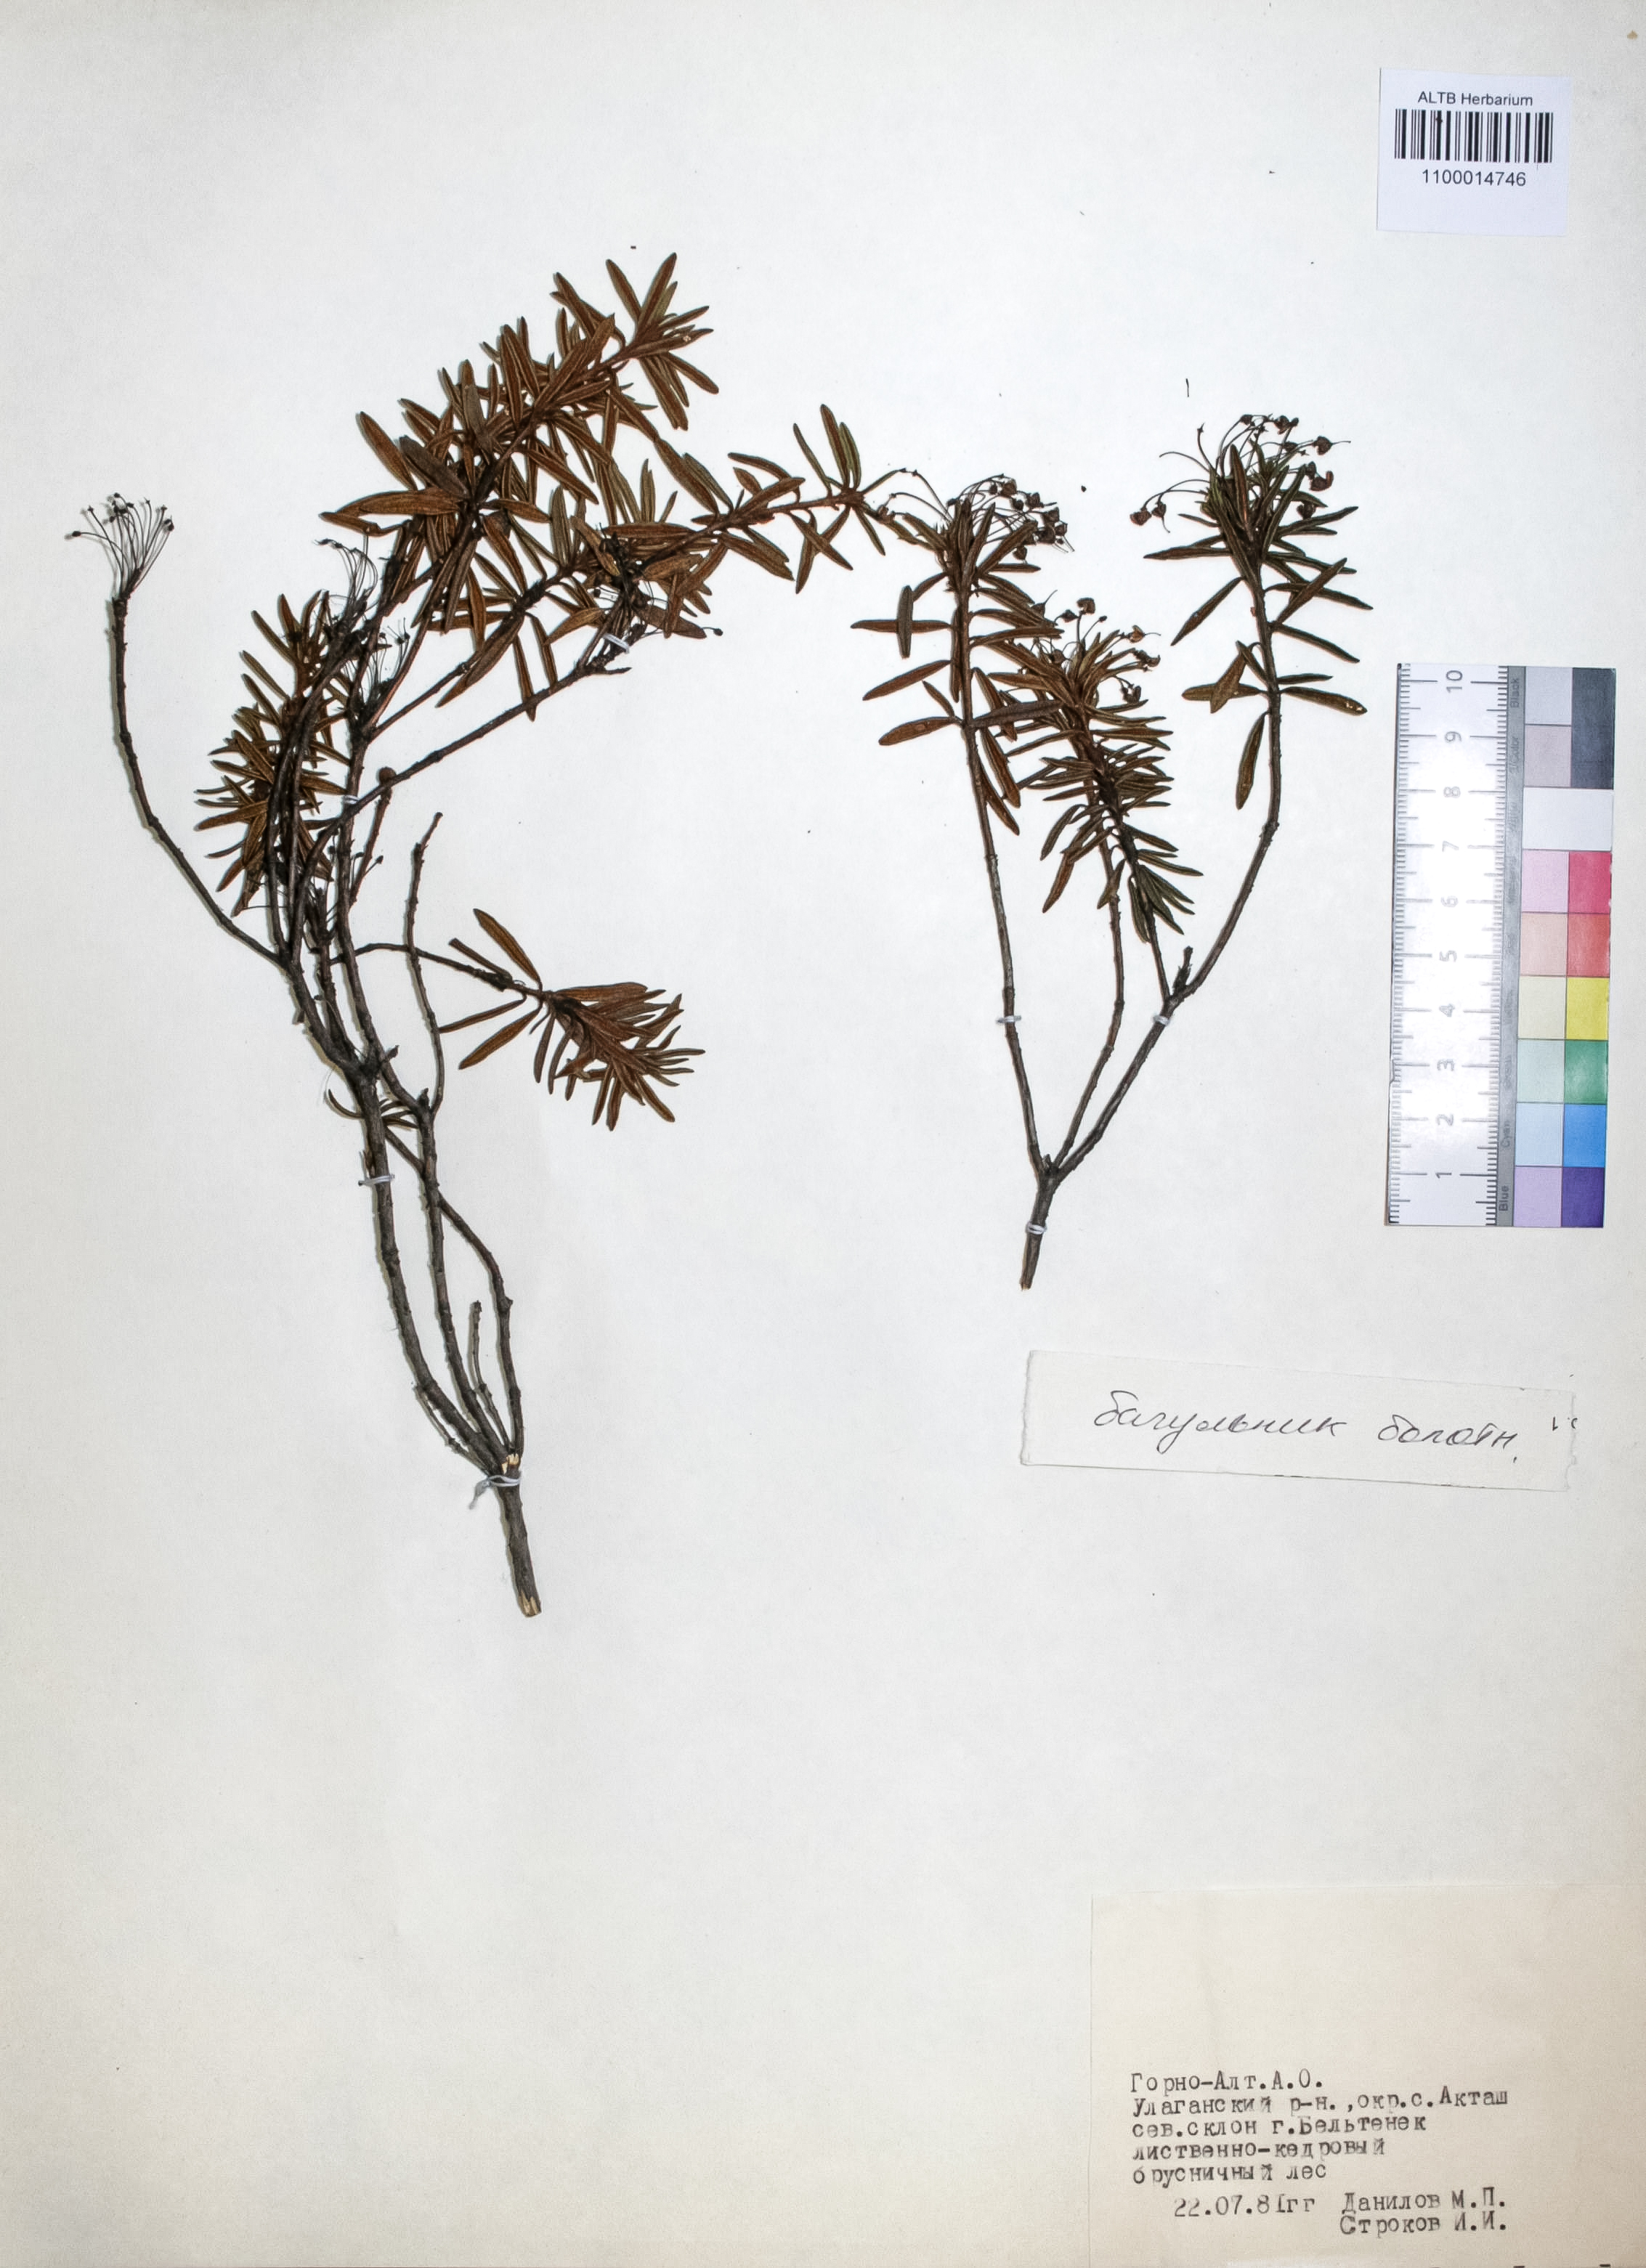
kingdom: Plantae
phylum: Tracheophyta
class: Magnoliopsida
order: Ericales
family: Ericaceae
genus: Rhododendron
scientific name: Rhododendron tomentosum
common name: Marsh labrador tea
